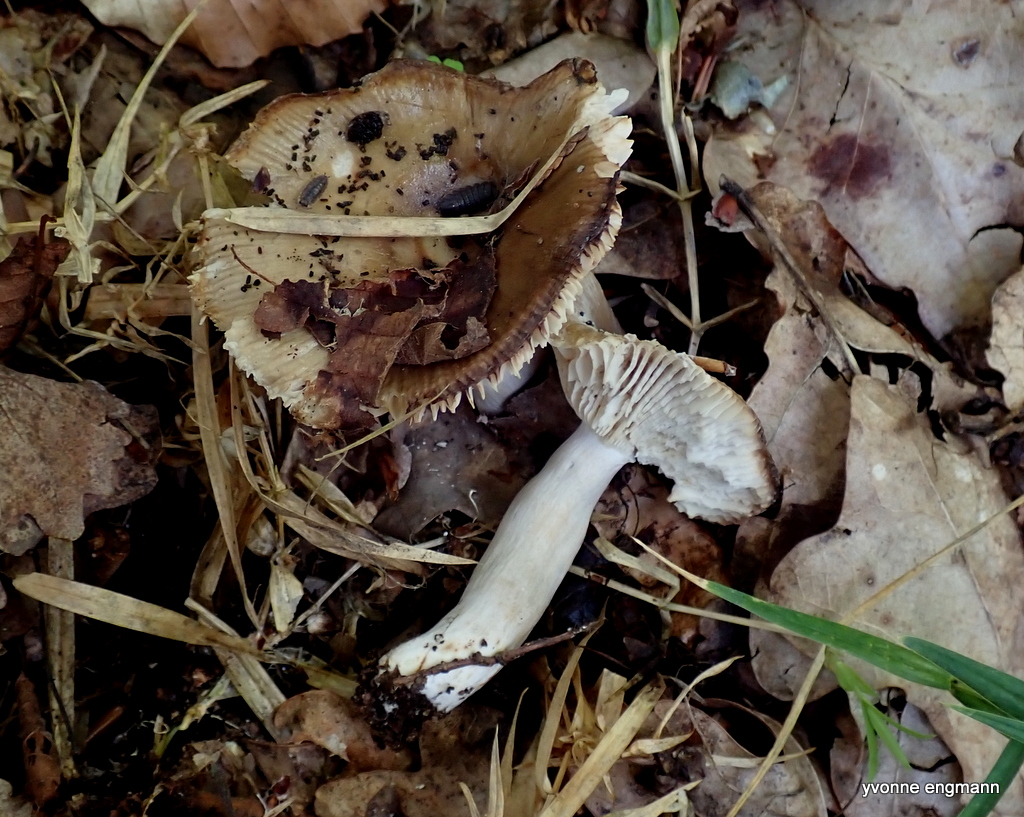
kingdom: Fungi
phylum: Basidiomycota
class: Agaricomycetes
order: Russulales
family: Russulaceae
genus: Russula
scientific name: Russula
